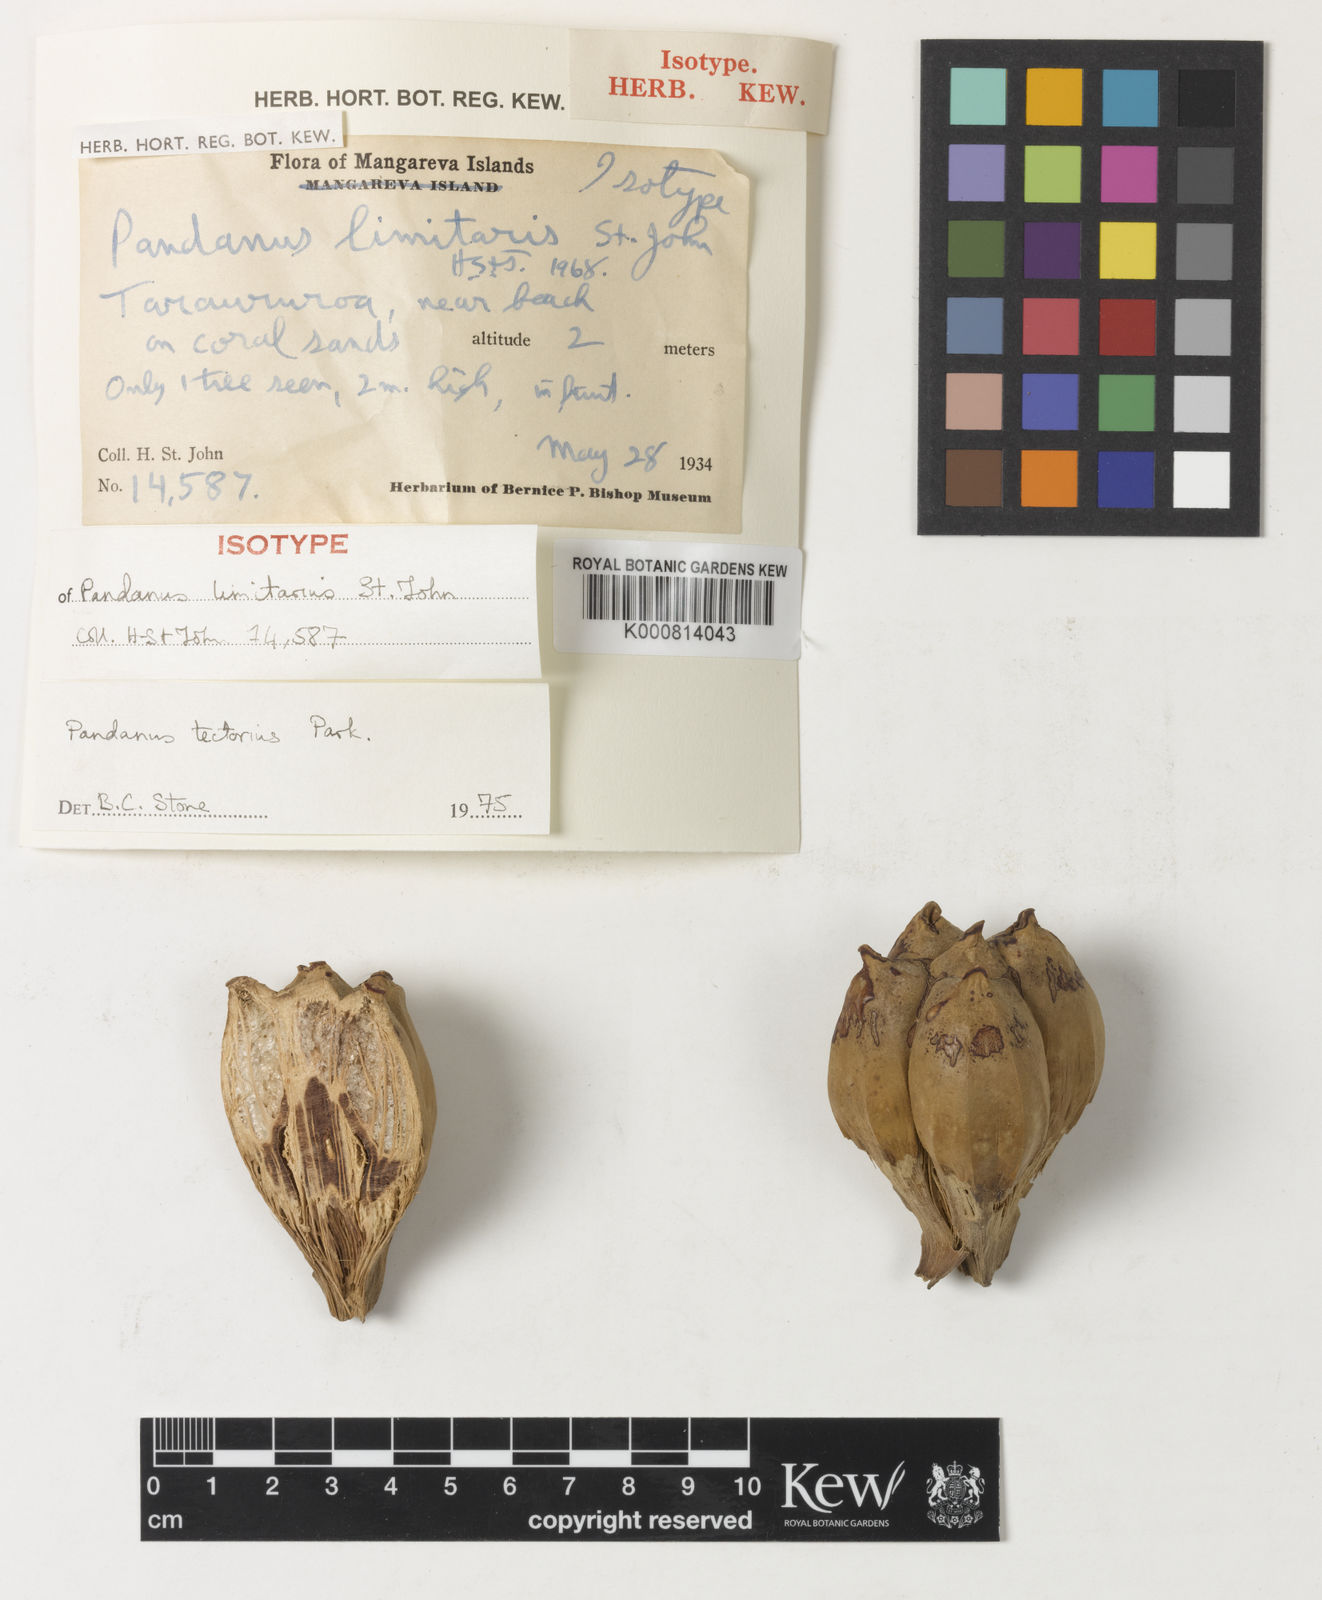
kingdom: Plantae
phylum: Tracheophyta
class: Liliopsida
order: Pandanales
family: Pandanaceae
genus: Pandanus
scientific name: Pandanus tectorius
